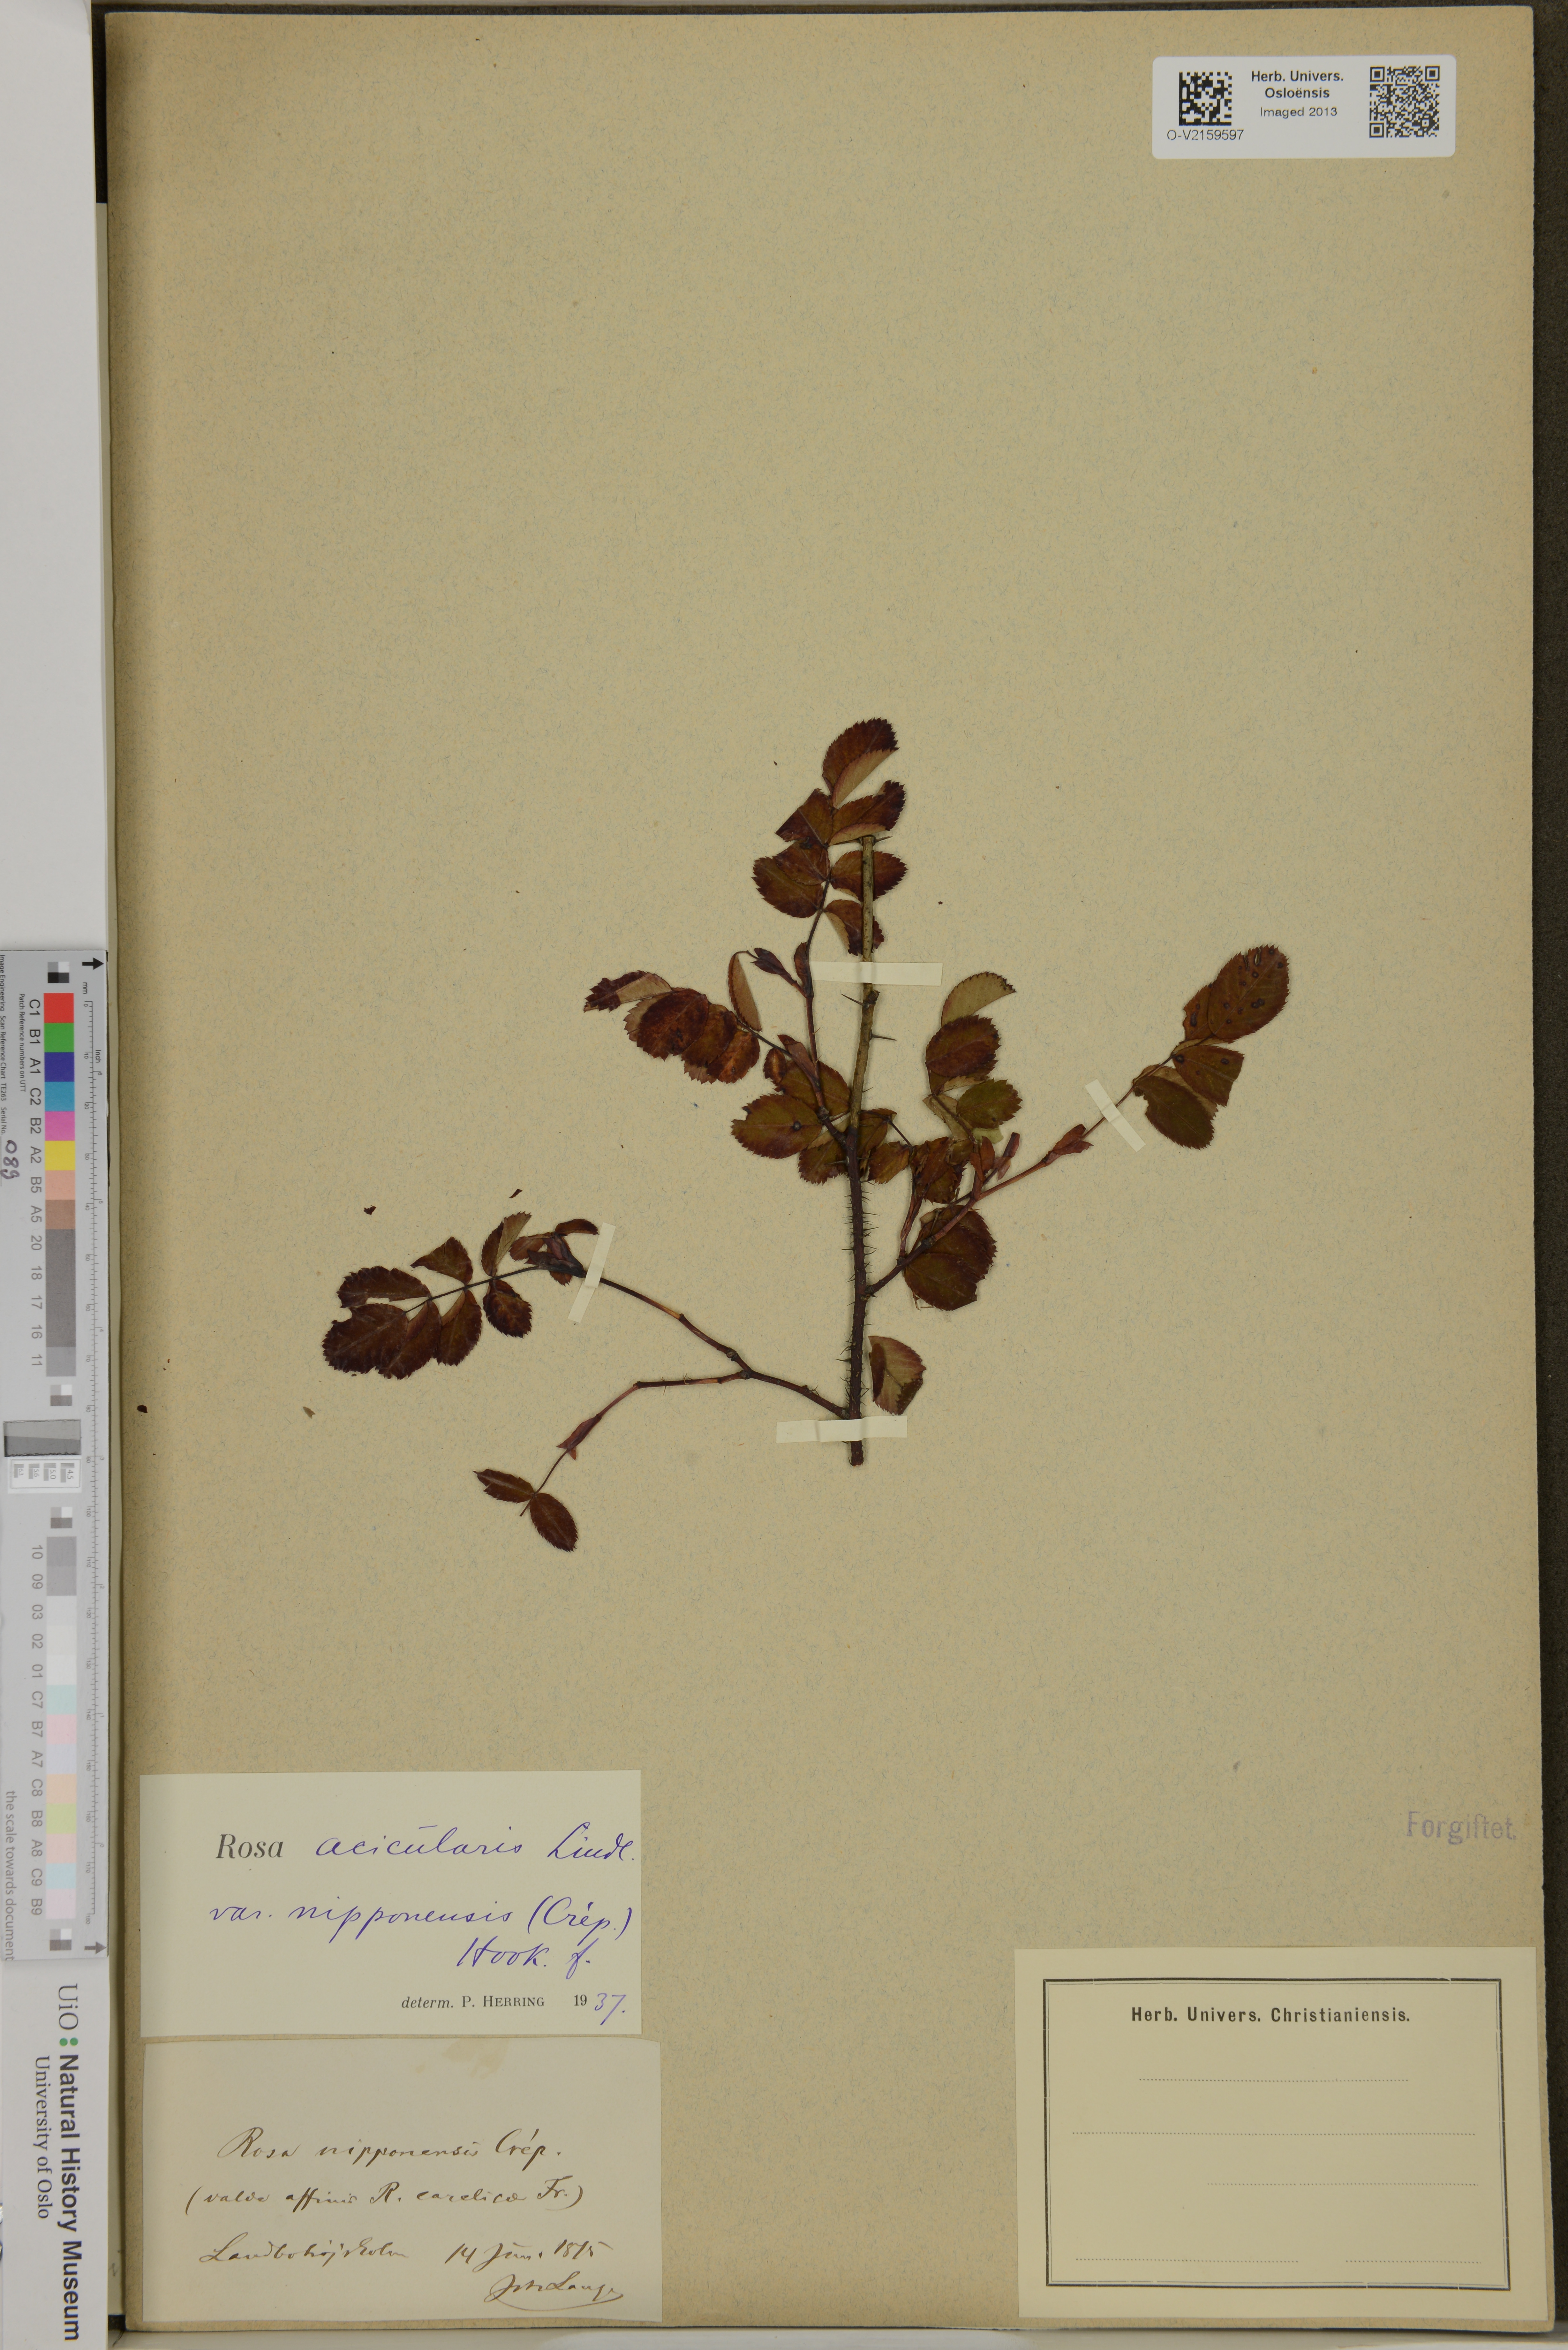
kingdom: Plantae
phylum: Tracheophyta
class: Magnoliopsida
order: Rosales
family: Rosaceae
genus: Rosa
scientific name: Rosa nipponensis
